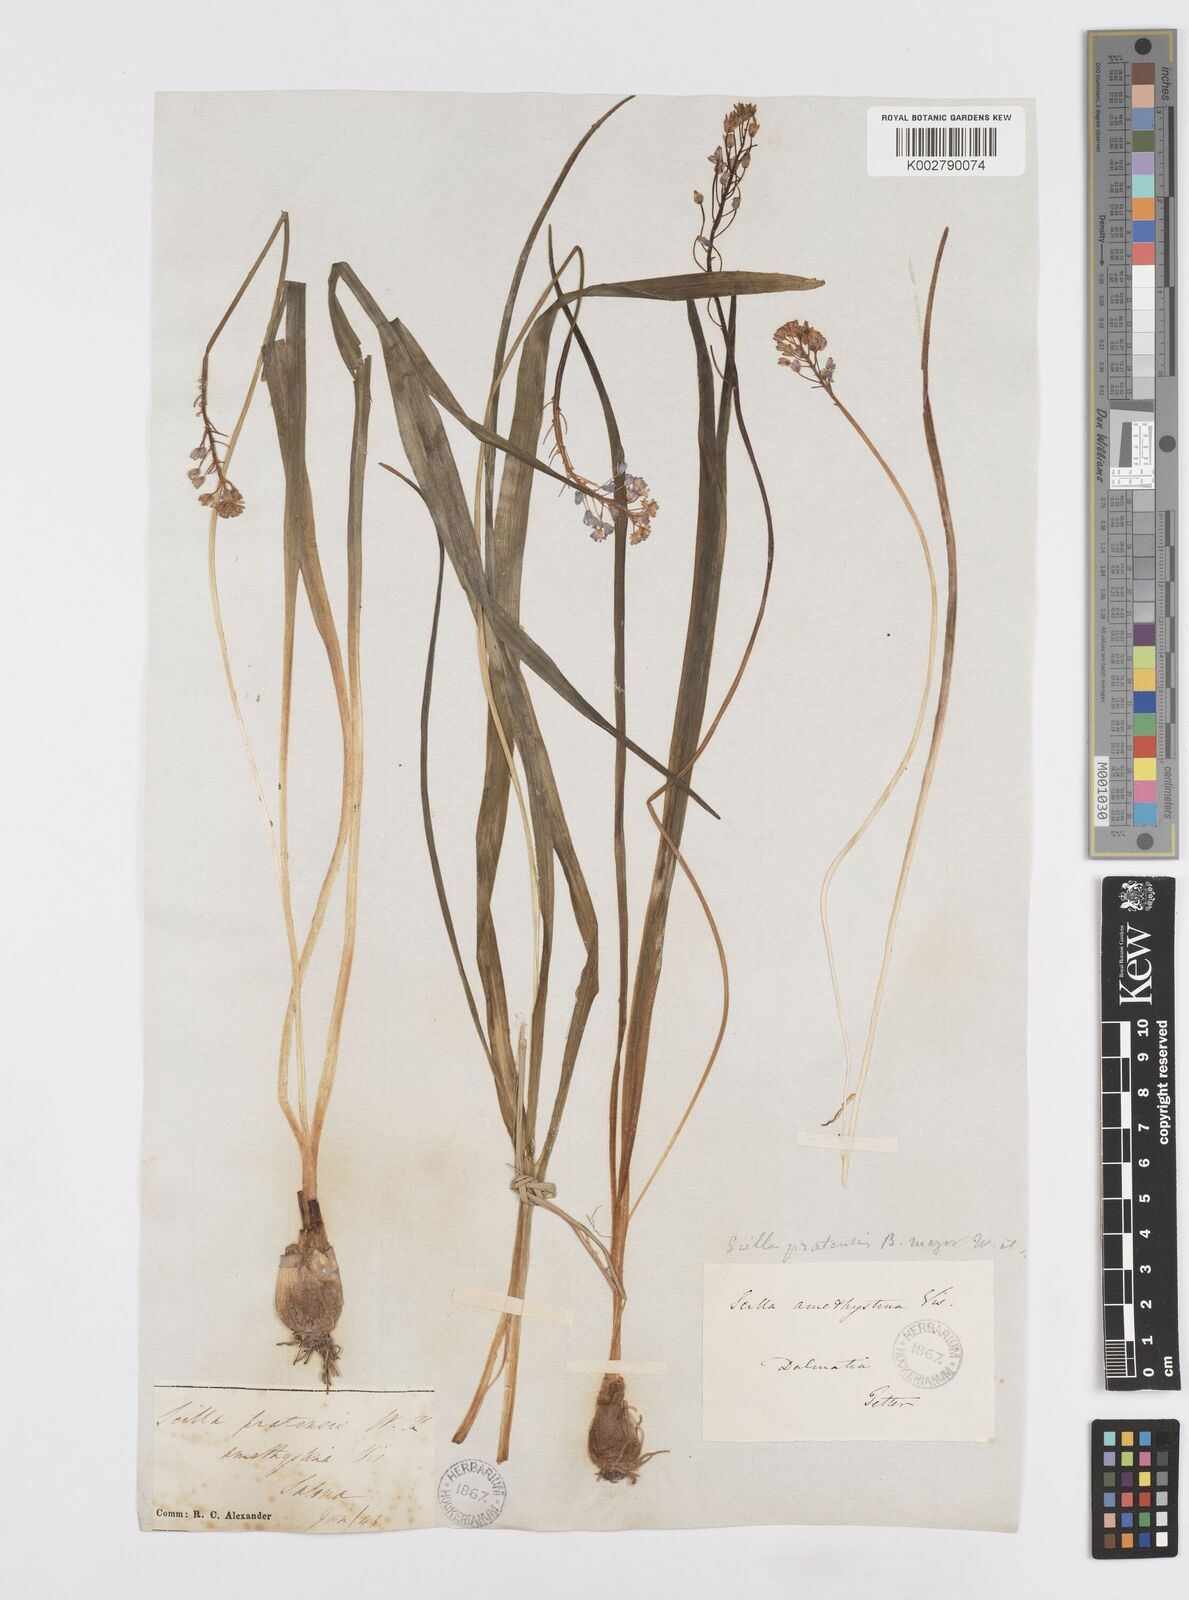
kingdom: Plantae
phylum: Tracheophyta
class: Liliopsida
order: Asparagales
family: Asparagaceae
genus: Scilla
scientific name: Scilla litardierei
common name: Amethyst meadow squill
